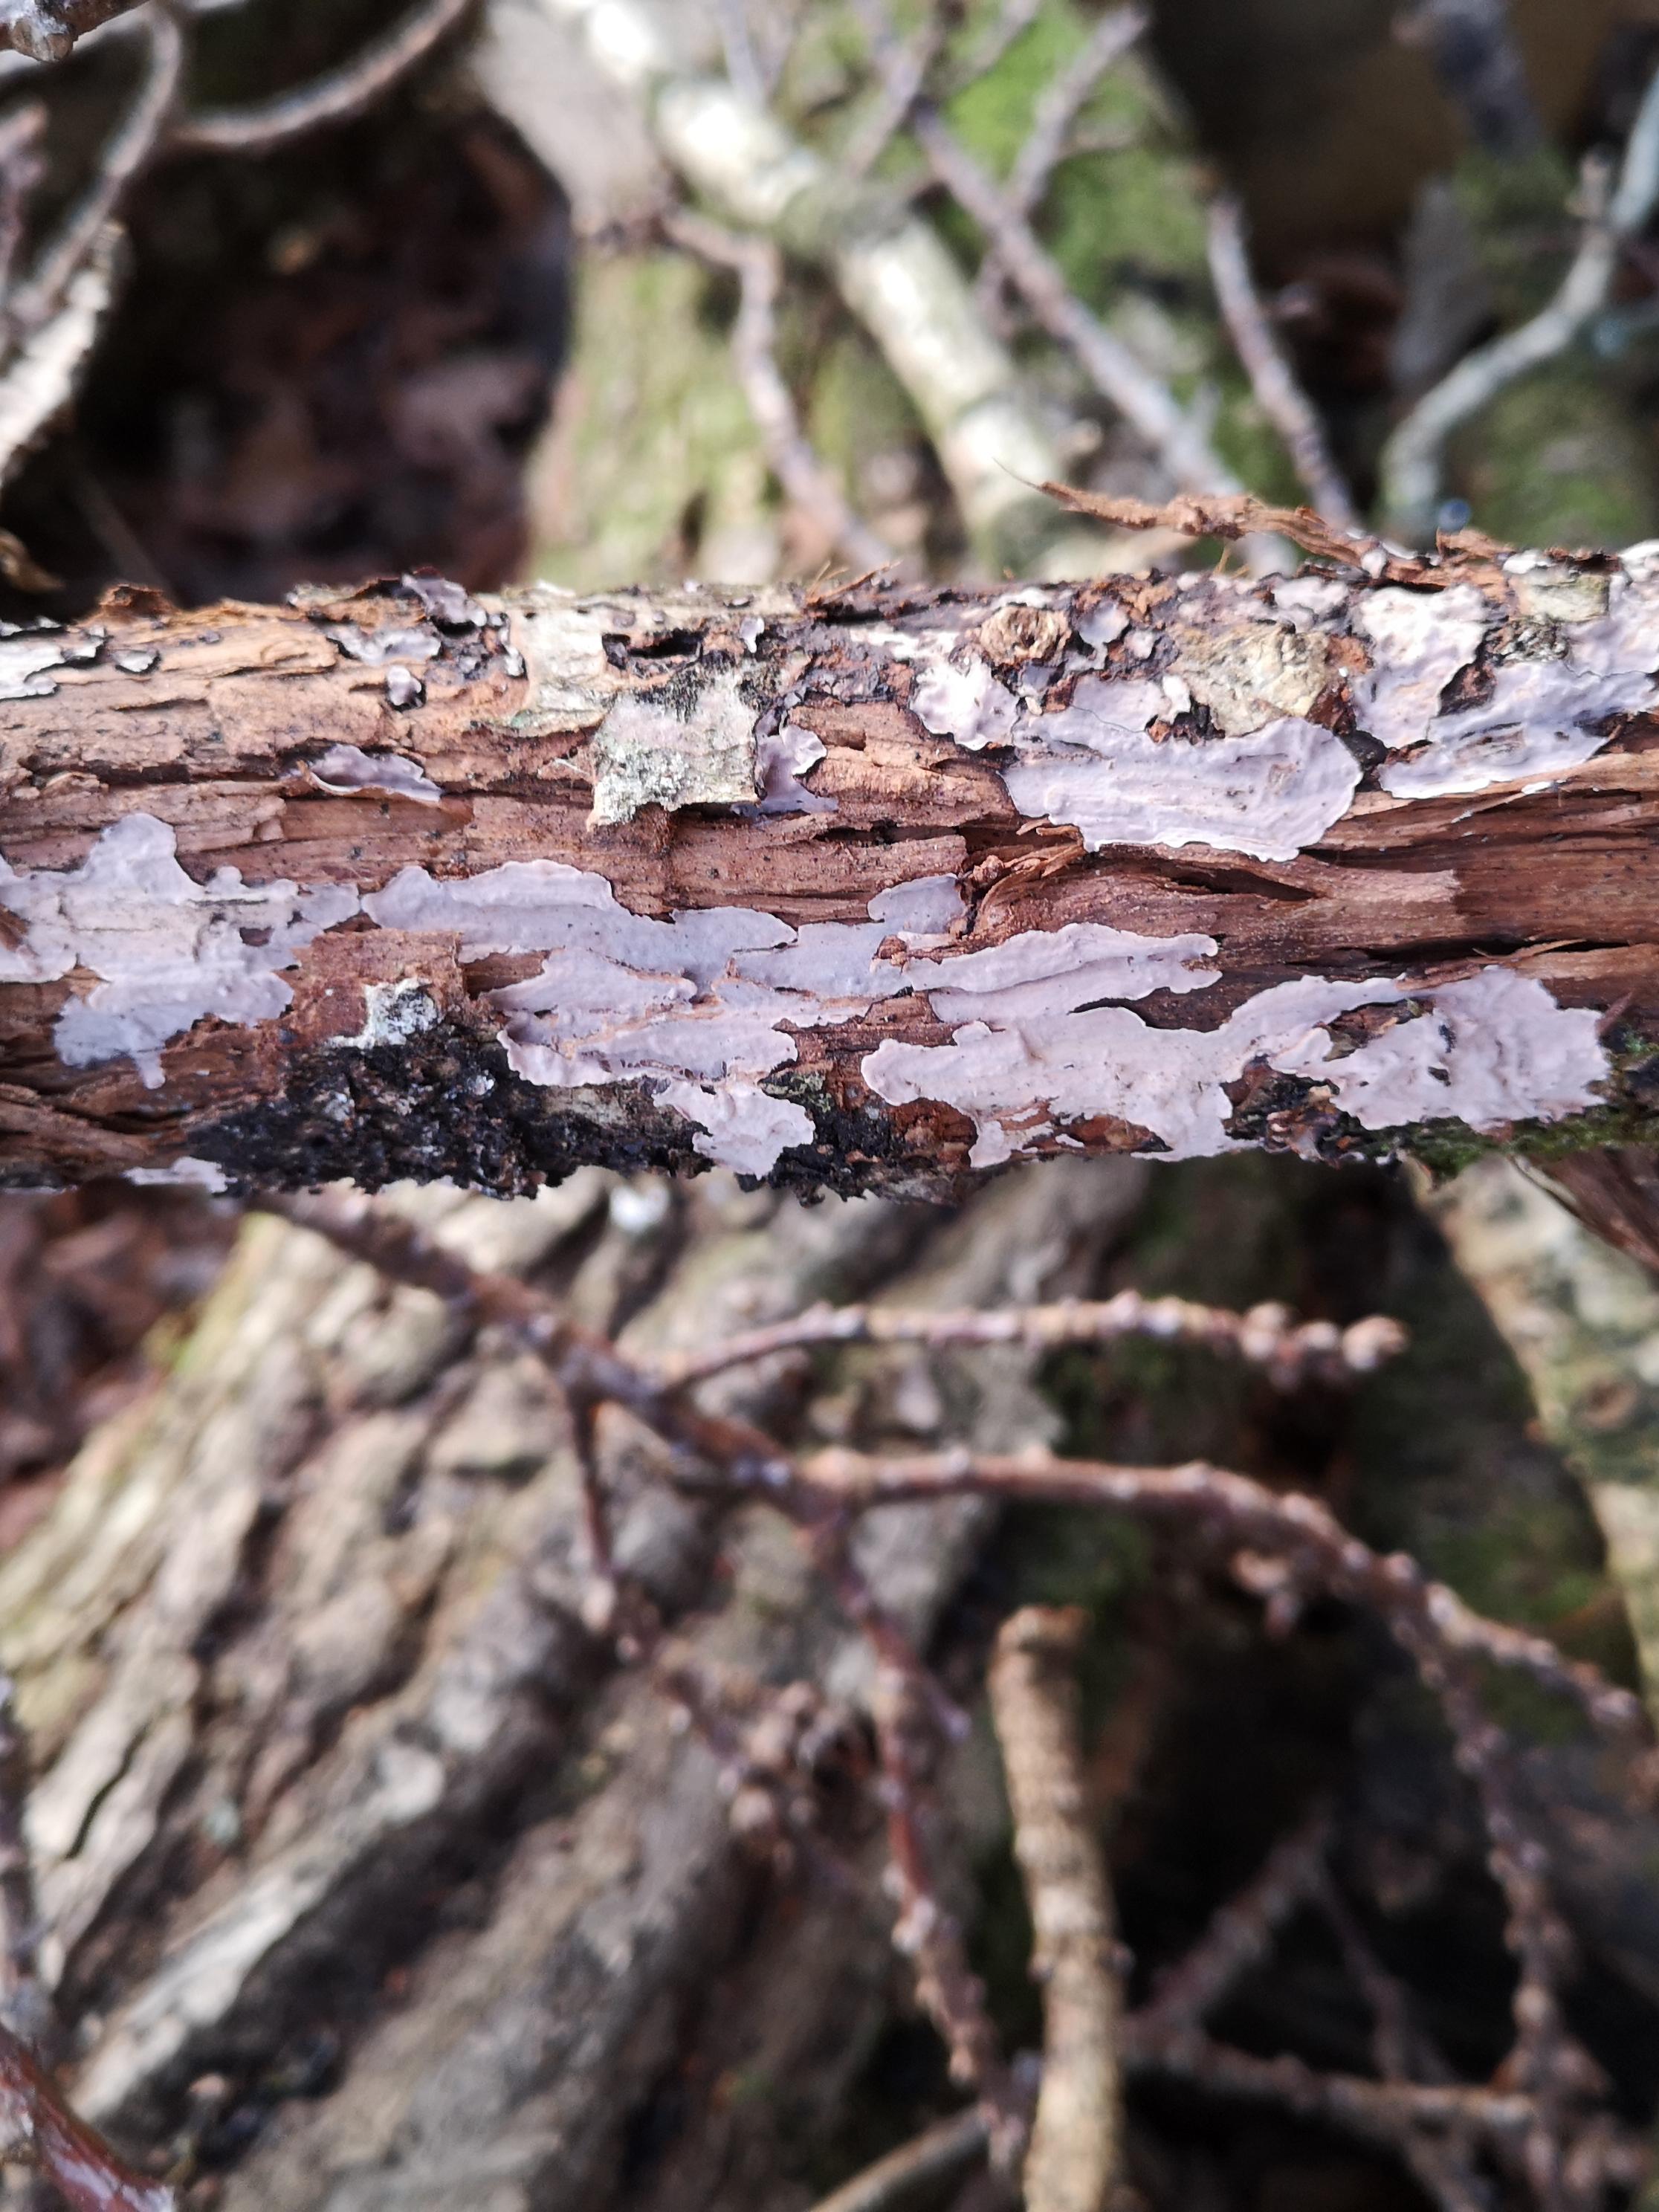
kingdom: Fungi
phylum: Basidiomycota
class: Agaricomycetes
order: Corticiales
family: Corticiaceae
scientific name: Corticiaceae
